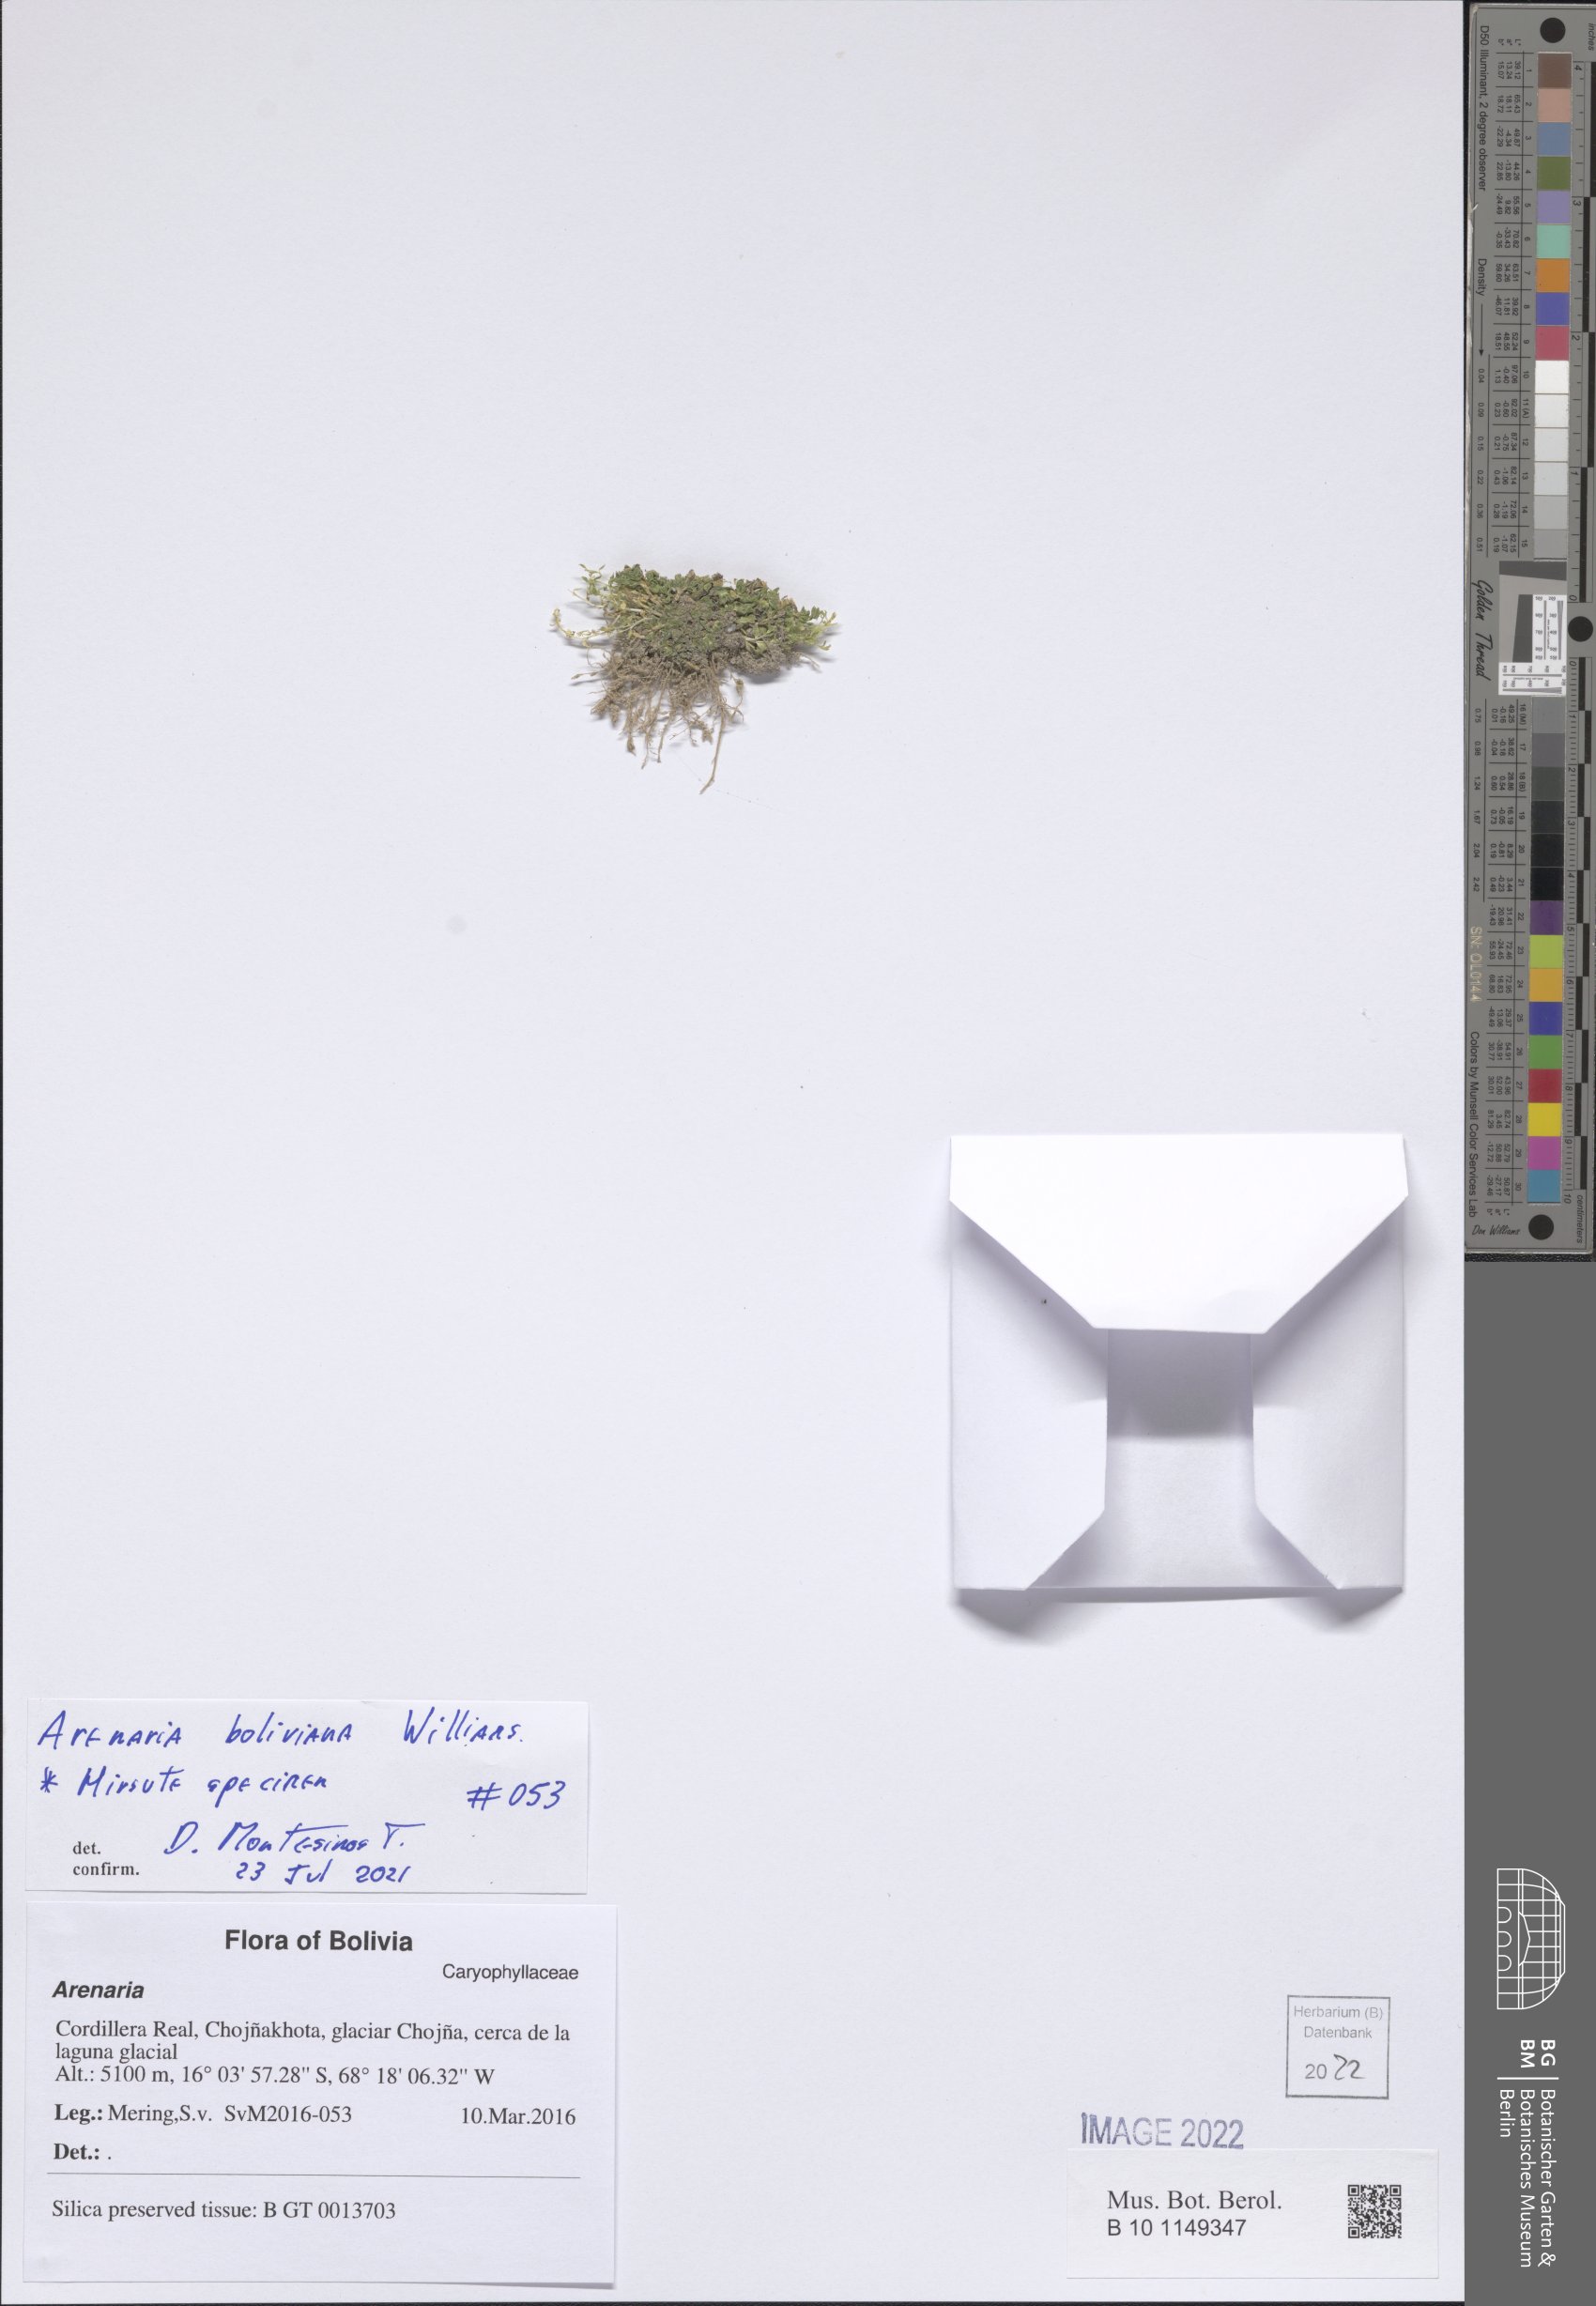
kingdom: Plantae
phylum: Tracheophyta
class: Magnoliopsida
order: Caryophyllales
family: Caryophyllaceae
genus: Arenaria
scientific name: Arenaria boliviana
